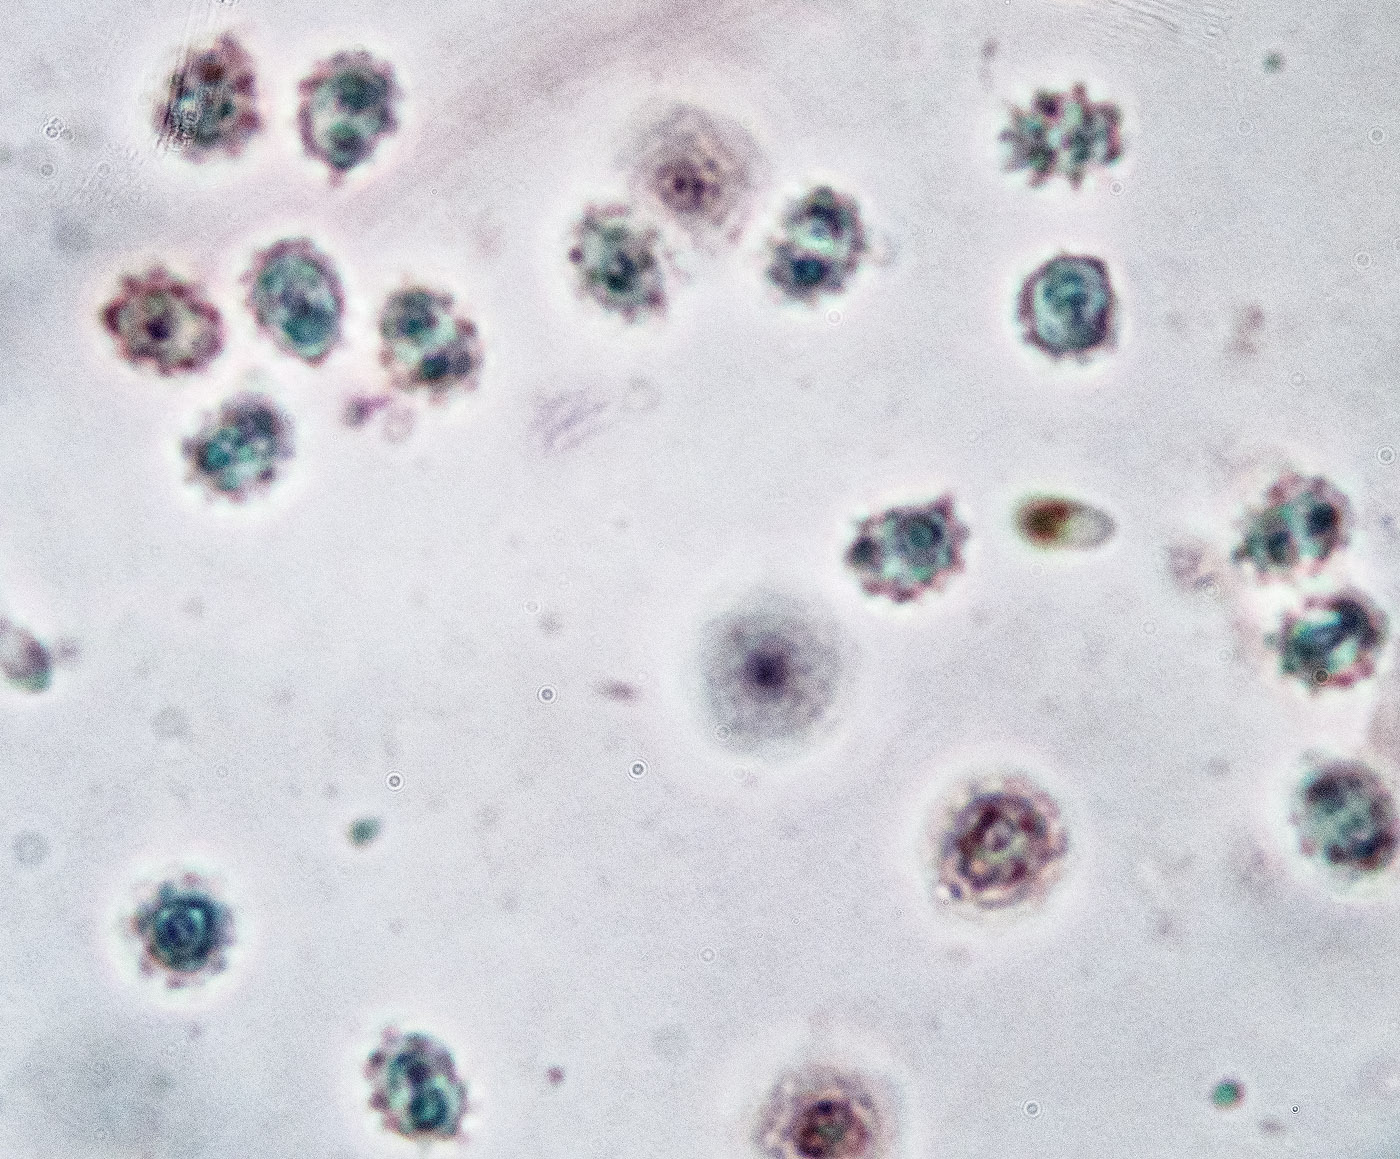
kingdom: Fungi
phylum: Basidiomycota
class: Agaricomycetes
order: Trechisporales
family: Sistotremataceae
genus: Trechispora
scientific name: Trechispora mollusca
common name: pyramide-vathinde
